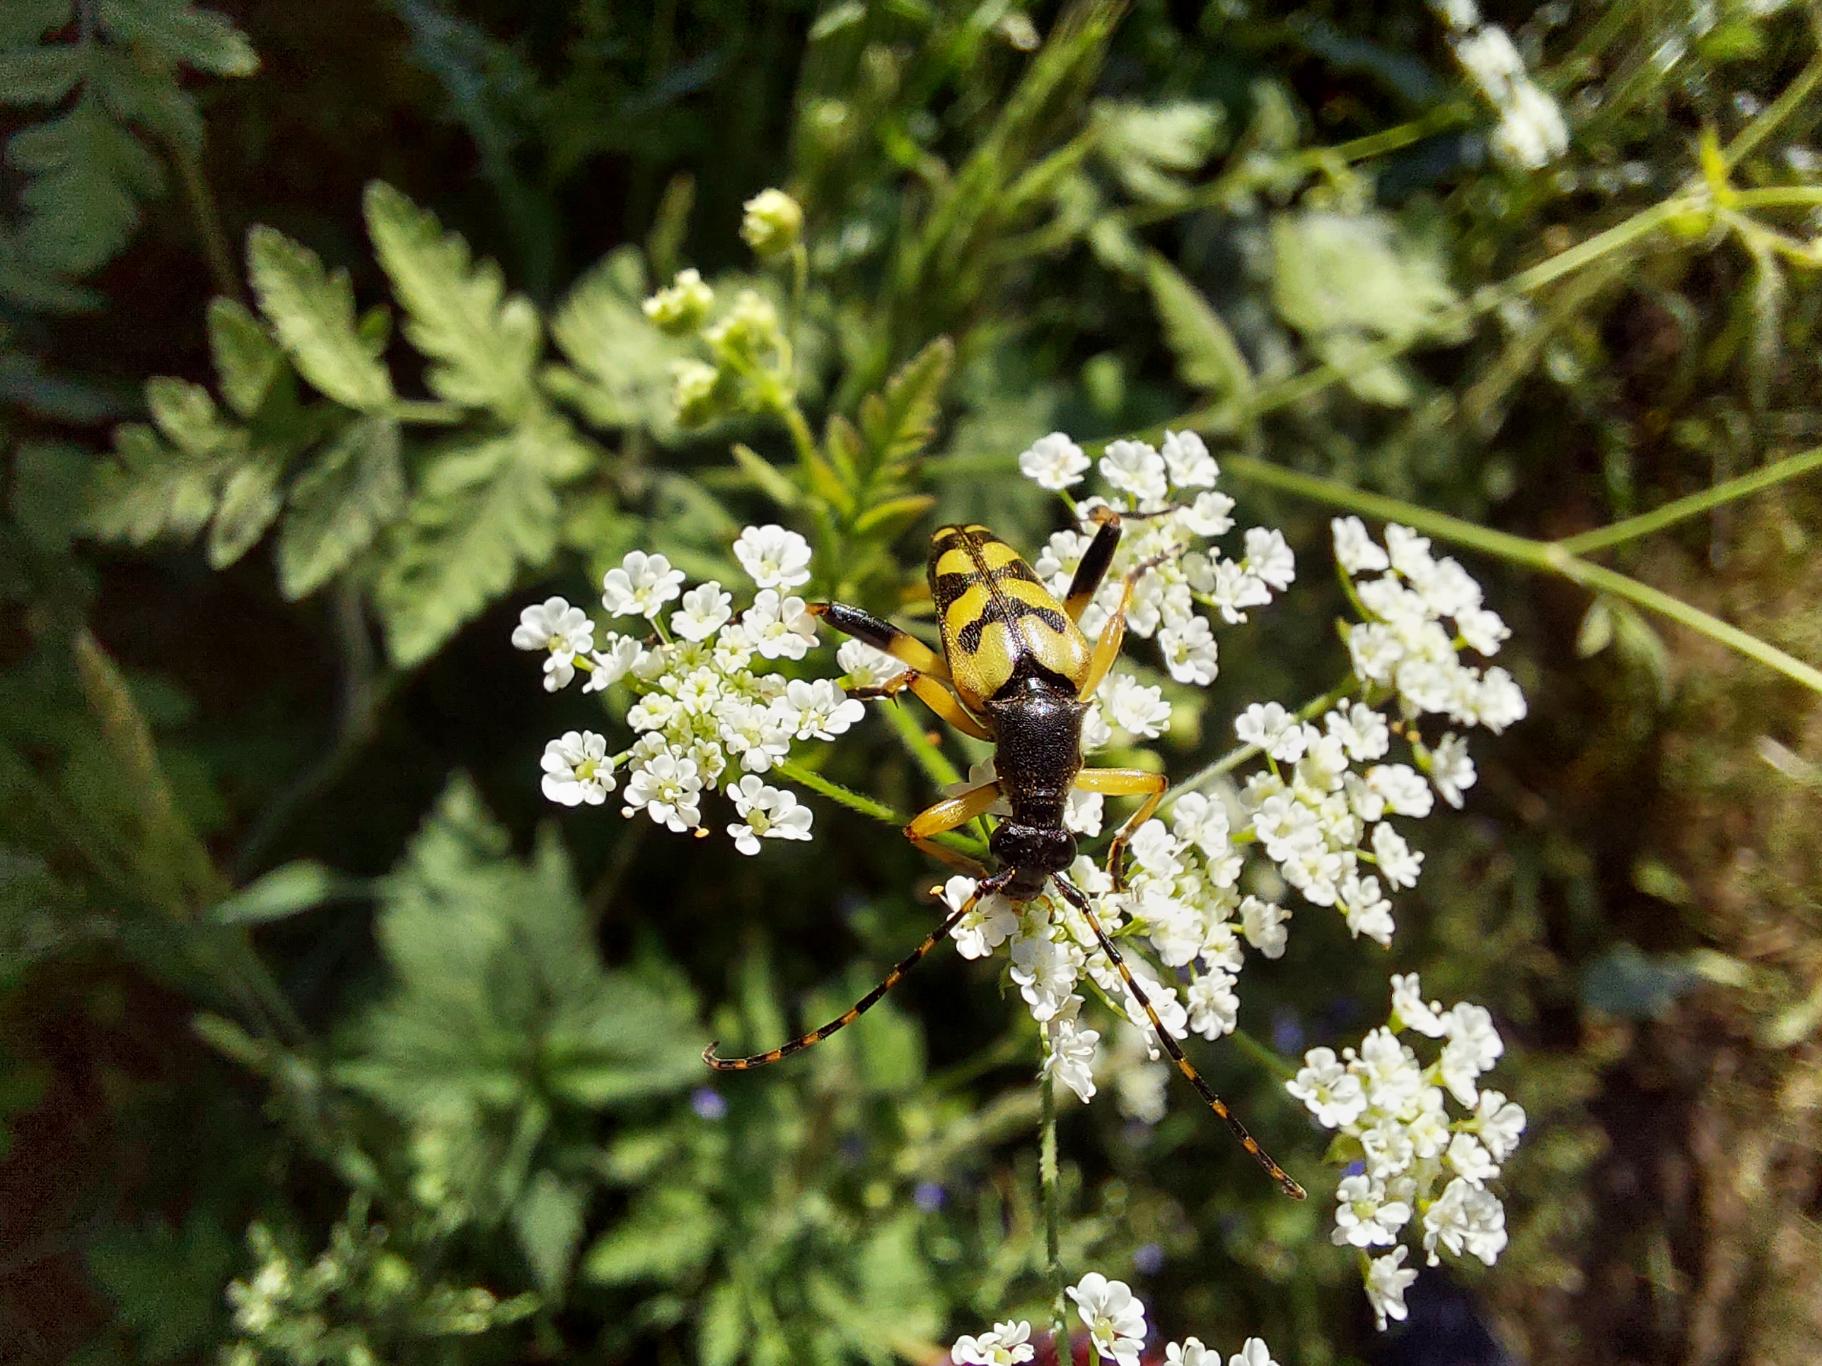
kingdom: Animalia
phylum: Arthropoda
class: Insecta
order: Coleoptera
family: Cerambycidae
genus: Rutpela
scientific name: Rutpela maculata
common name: Sydlig blomsterbuk
